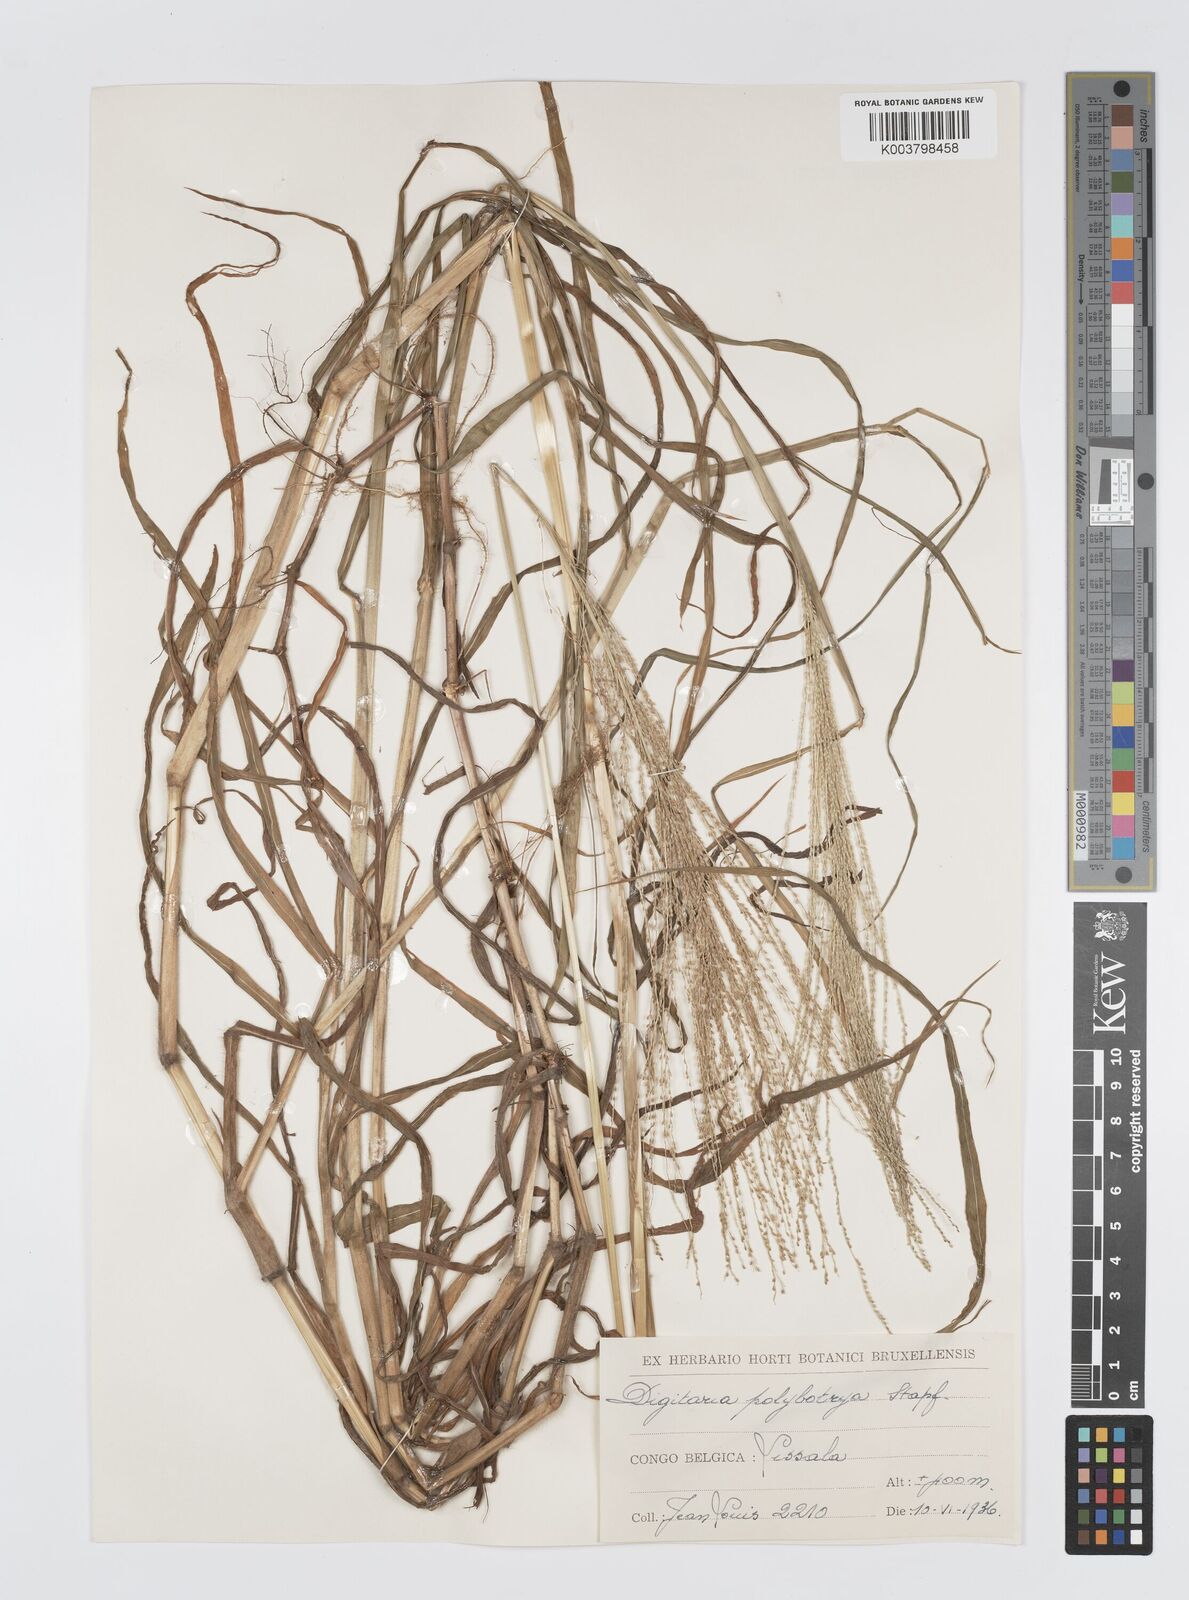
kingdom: Plantae
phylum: Tracheophyta
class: Liliopsida
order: Poales
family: Poaceae
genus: Digitaria
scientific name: Digitaria leptorhachis
